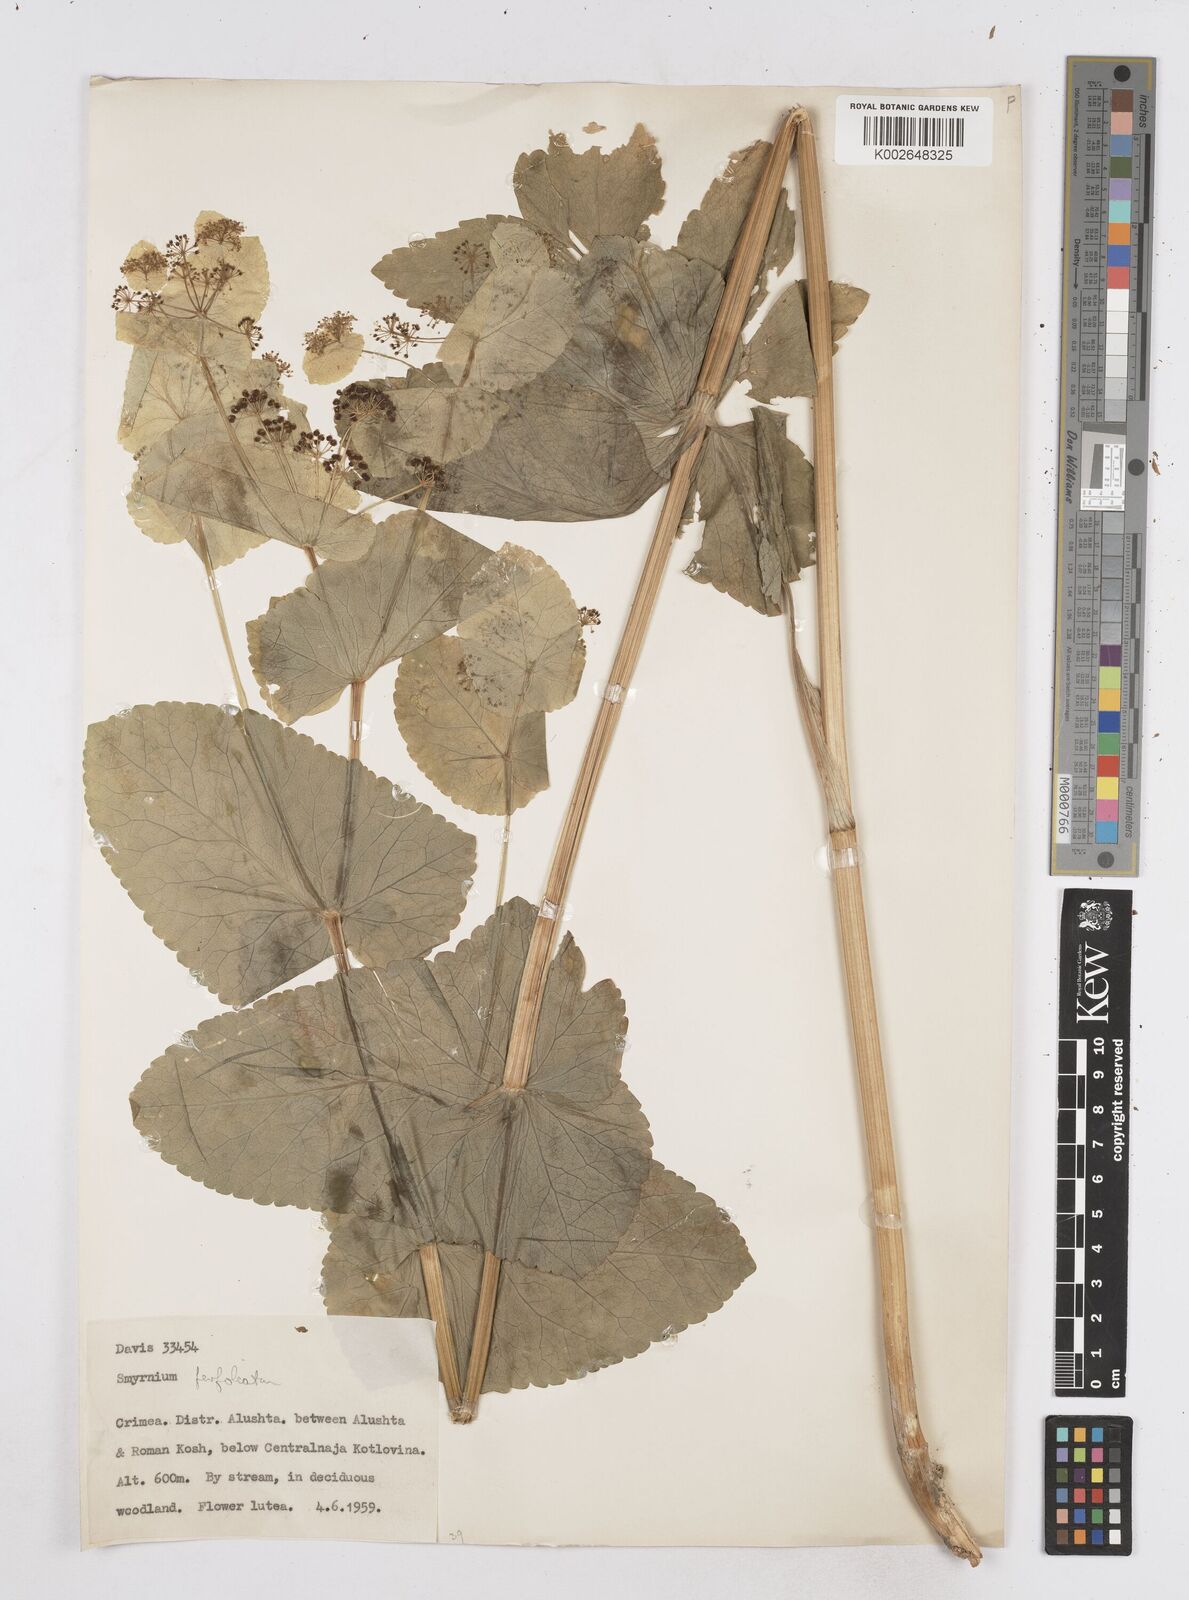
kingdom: Plantae
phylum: Tracheophyta
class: Magnoliopsida
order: Apiales
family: Apiaceae
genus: Smyrnium
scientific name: Smyrnium perfoliatum
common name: Perfoliate alexanders
